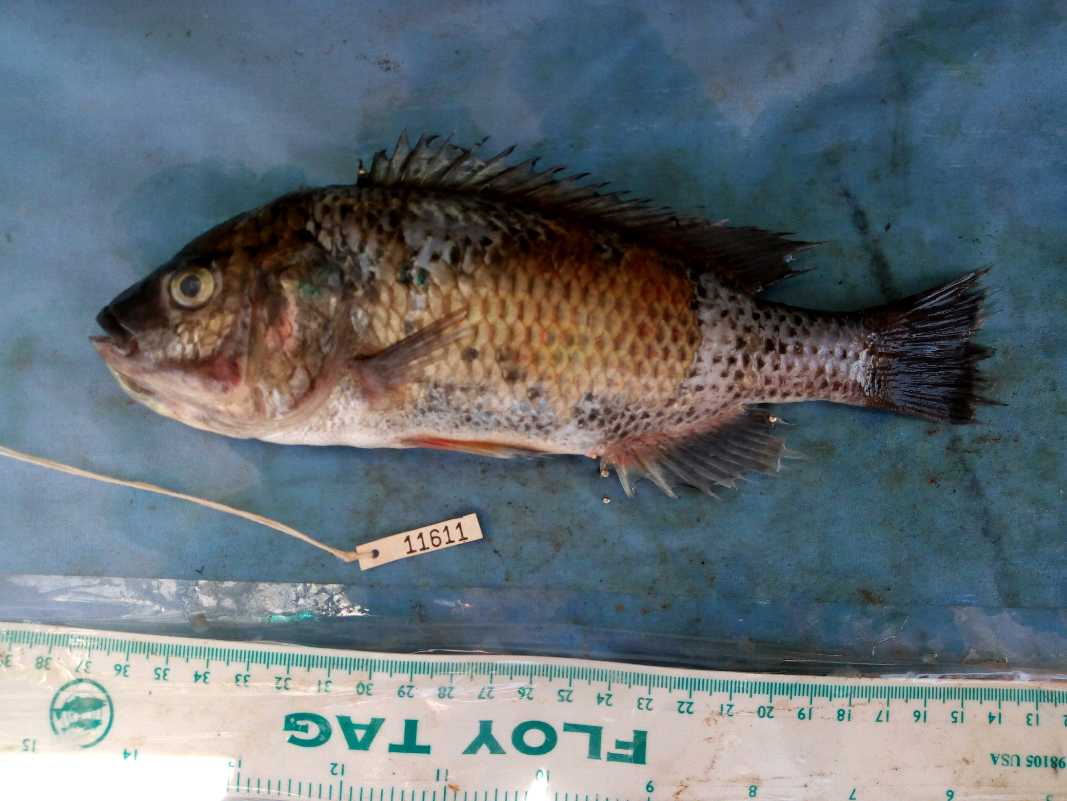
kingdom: Animalia
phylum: Chordata
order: Perciformes
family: Cichlidae
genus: Oreochromis
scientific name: Oreochromis hunteri
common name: Lake chala tilapia
